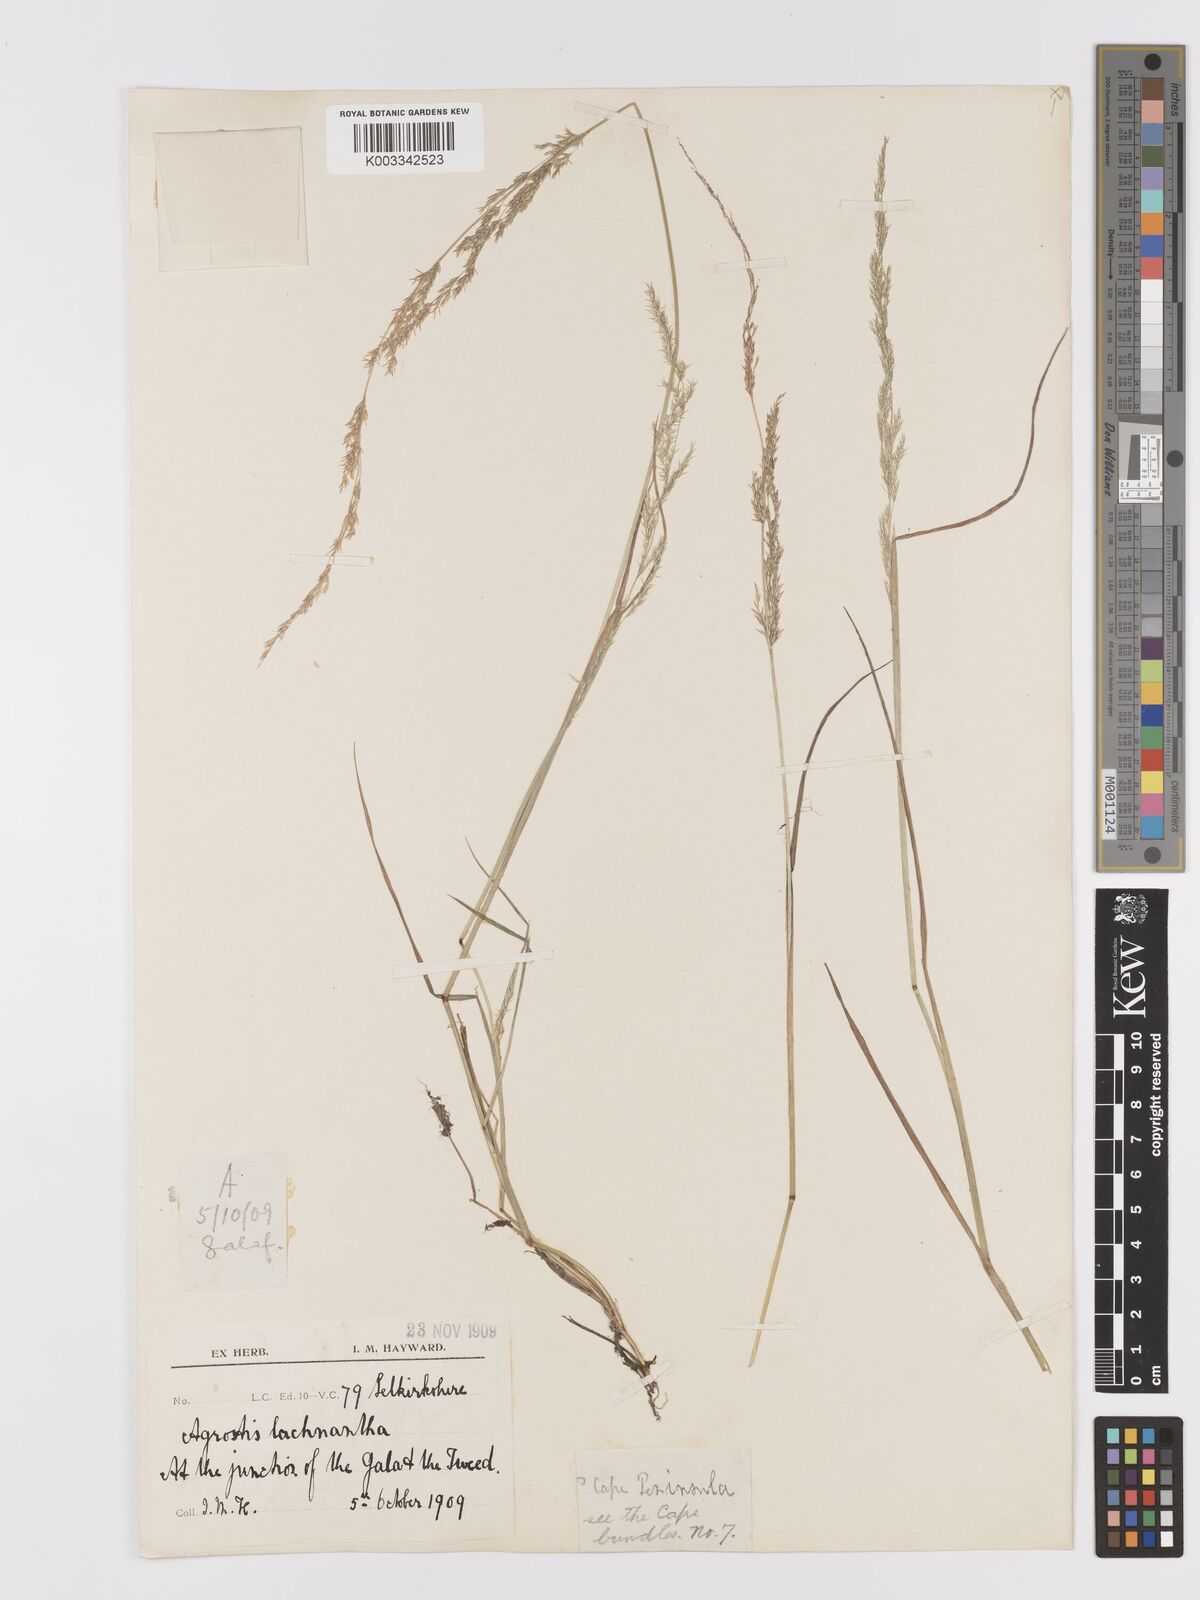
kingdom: Plantae
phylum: Tracheophyta
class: Liliopsida
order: Poales
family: Poaceae
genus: Lachnagrostis
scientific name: Lachnagrostis lachnantha
